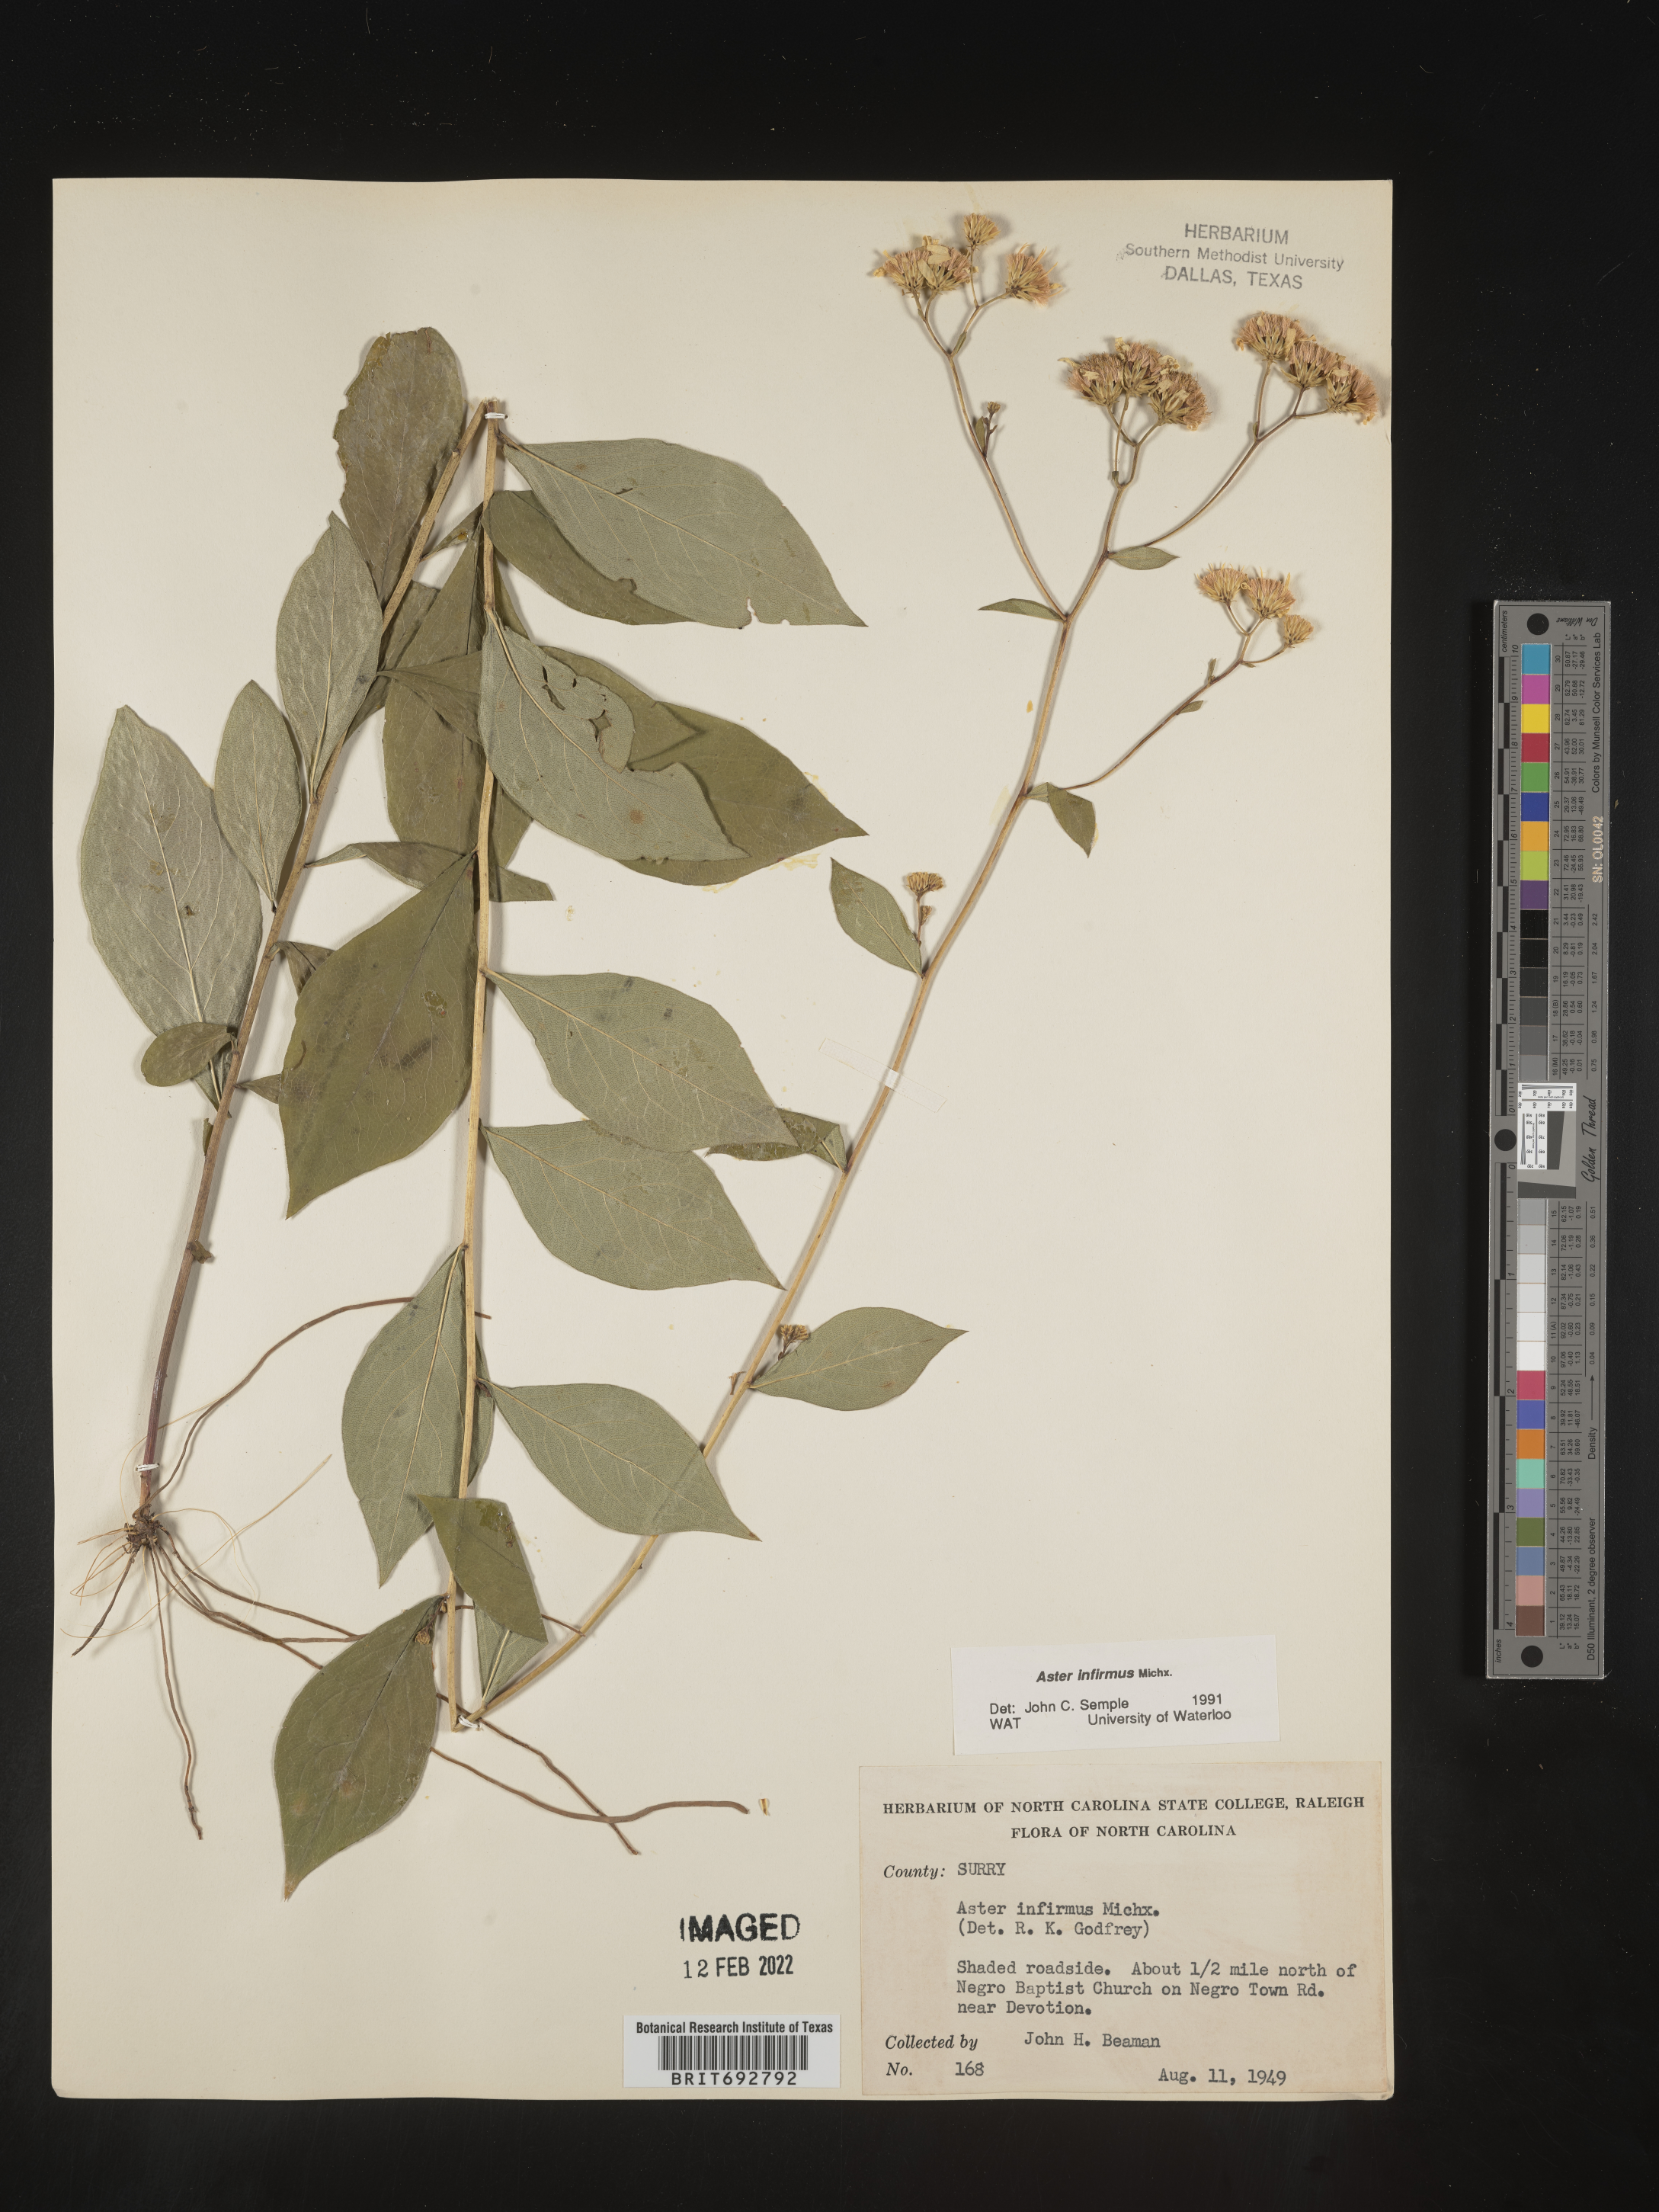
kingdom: Plantae
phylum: Tracheophyta
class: Magnoliopsida
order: Asterales
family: Asteraceae
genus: Doellingeria
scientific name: Doellingeria infirma
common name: Appalachian flat-top aster
